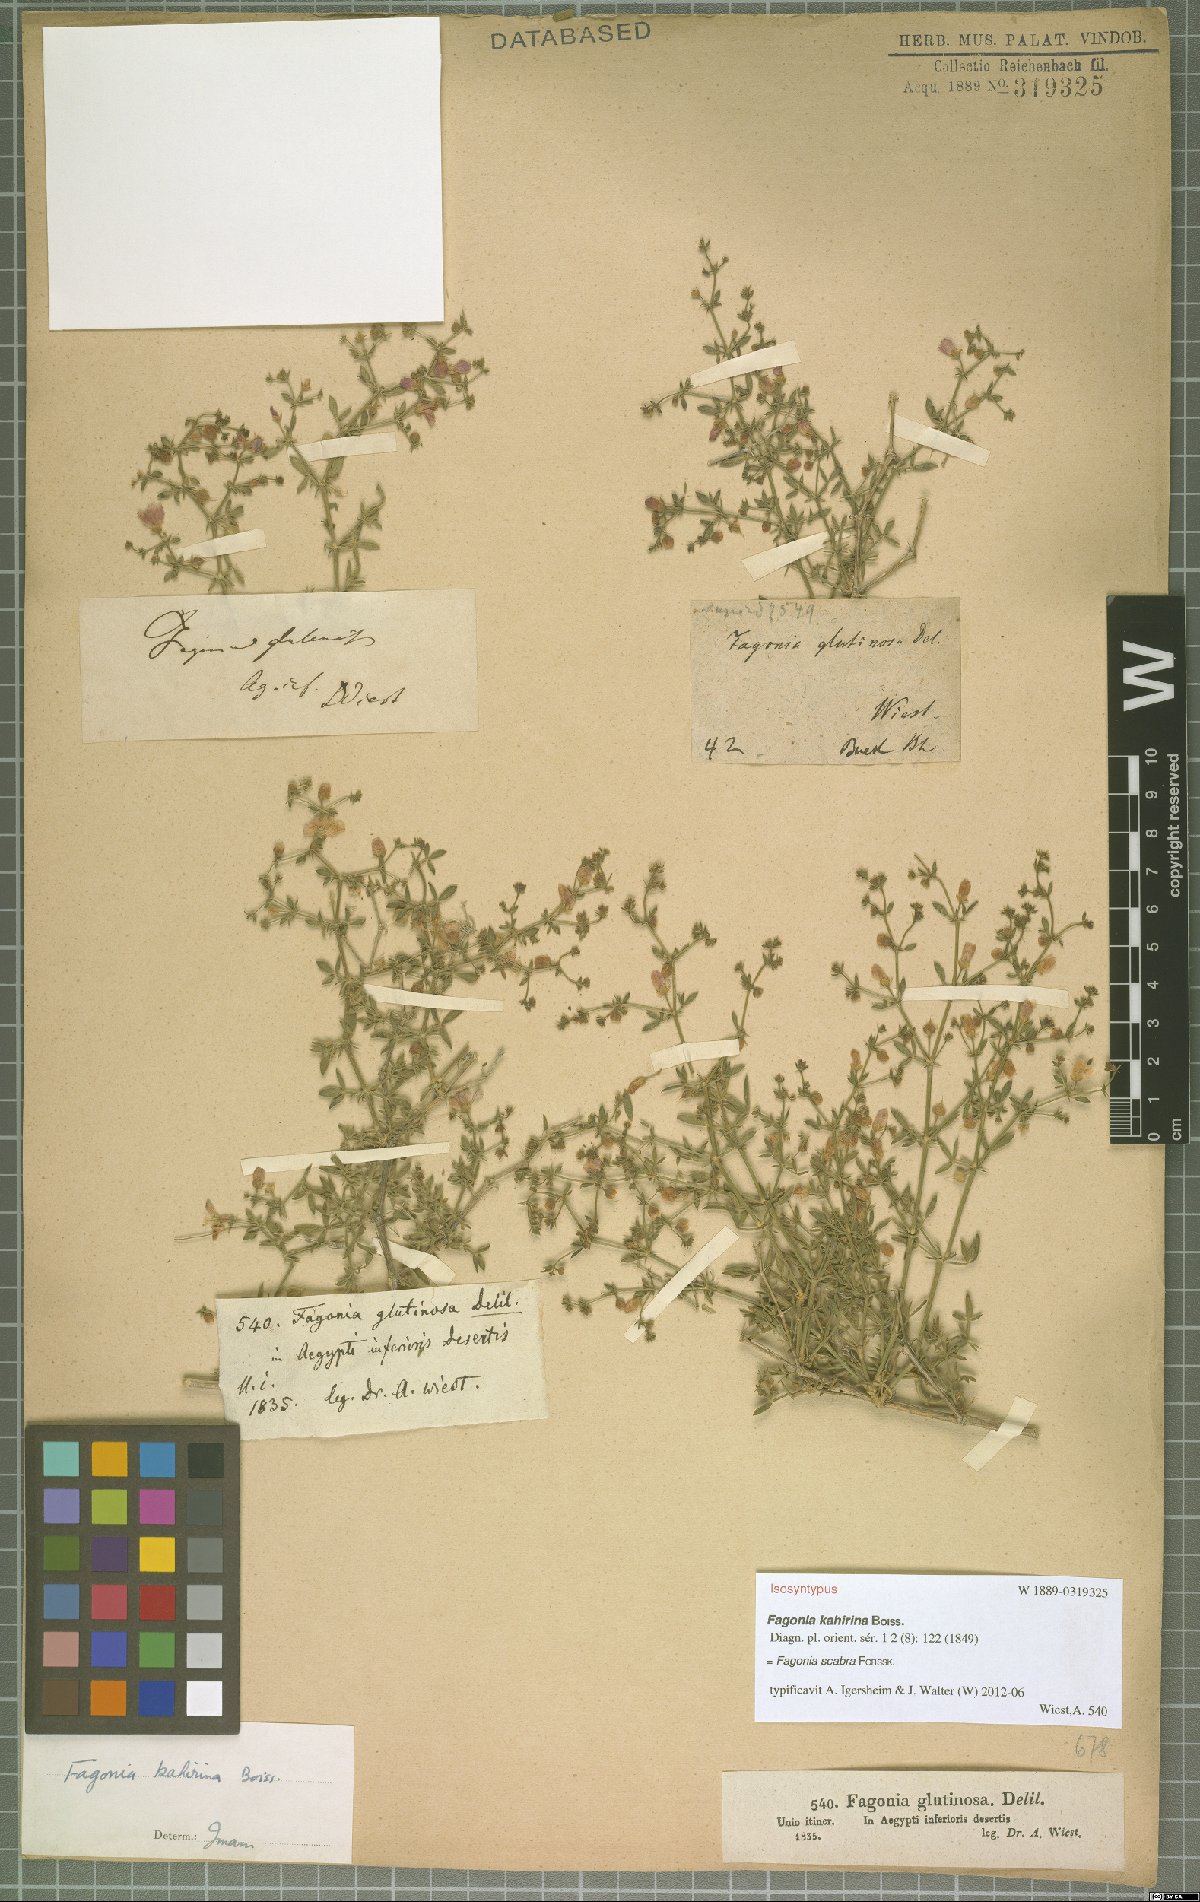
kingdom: Plantae
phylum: Tracheophyta
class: Magnoliopsida
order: Zygophyllales
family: Zygophyllaceae
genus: Fagonia
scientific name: Fagonia scabra
